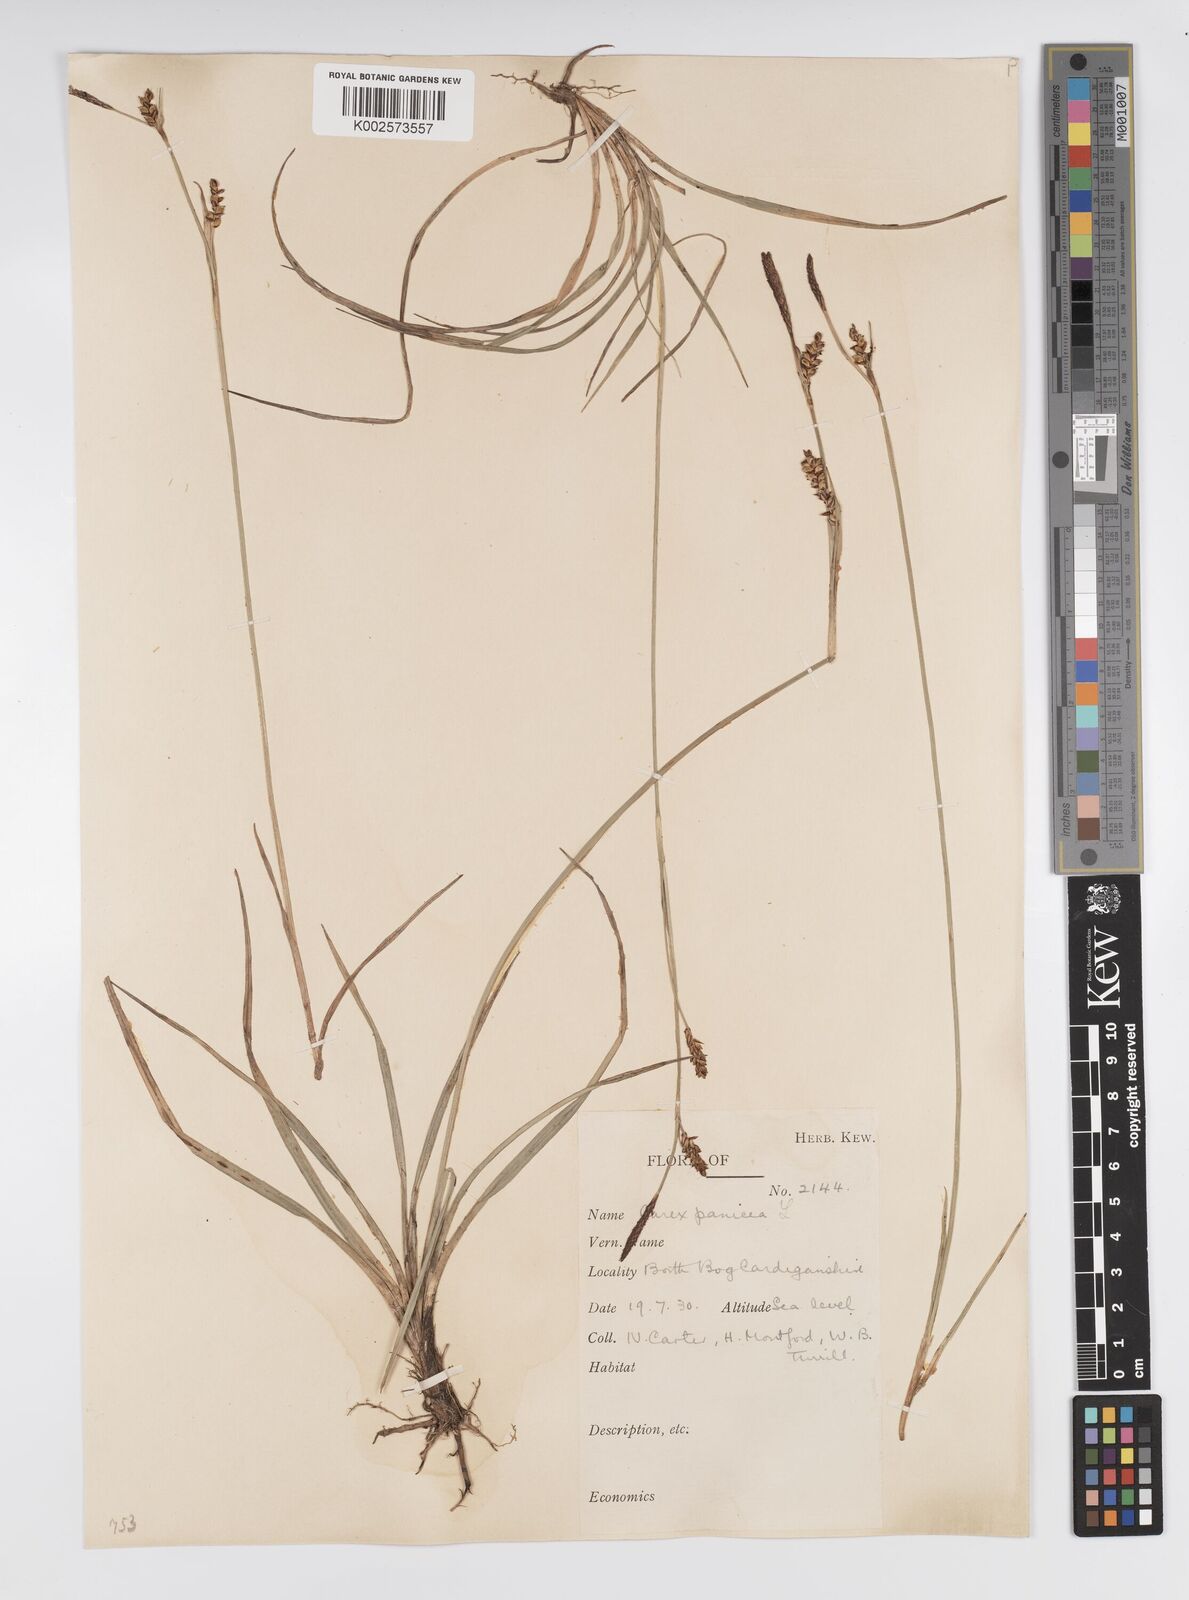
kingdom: Plantae
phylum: Tracheophyta
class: Liliopsida
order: Poales
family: Cyperaceae
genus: Carex
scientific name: Carex panicea
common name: Carnation sedge
